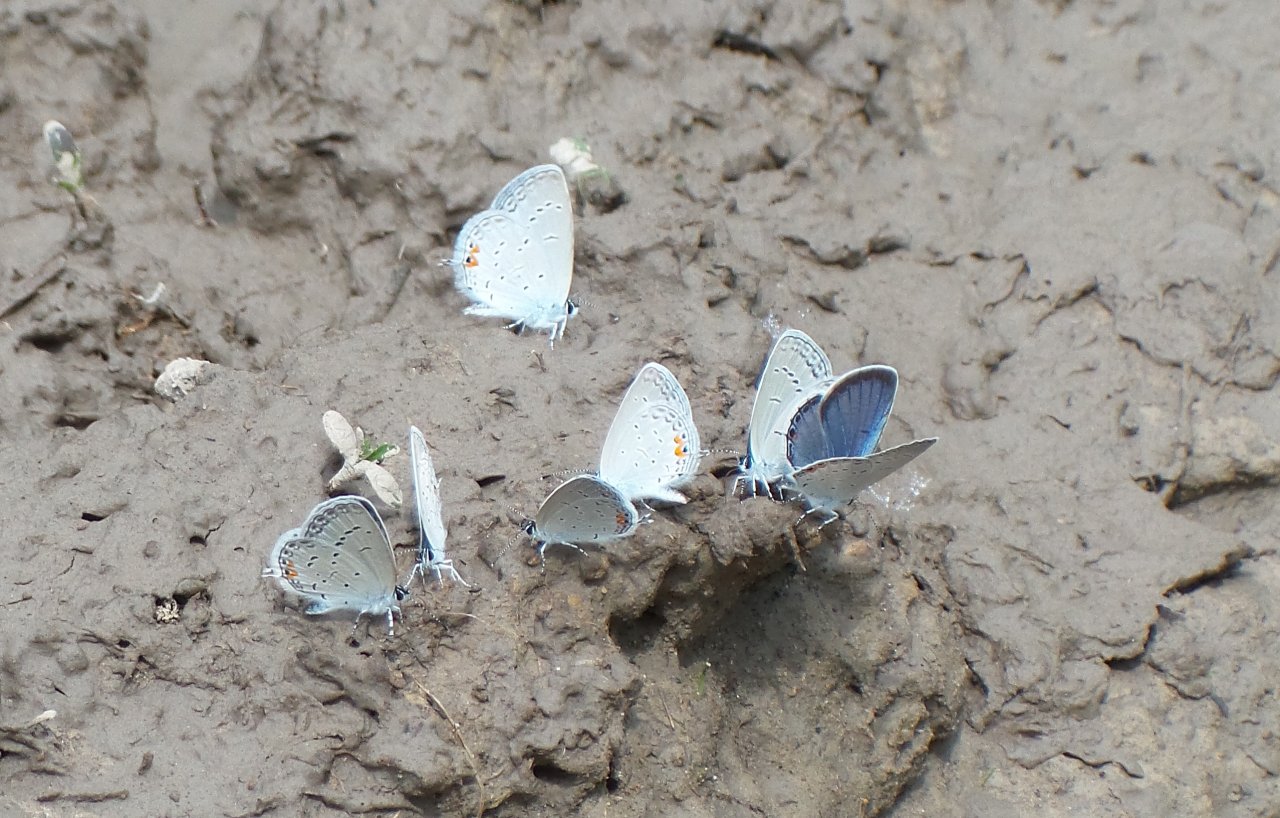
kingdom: Animalia
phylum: Arthropoda
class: Insecta
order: Lepidoptera
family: Lycaenidae
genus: Elkalyce
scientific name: Elkalyce comyntas
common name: Eastern Tailed-Blue
